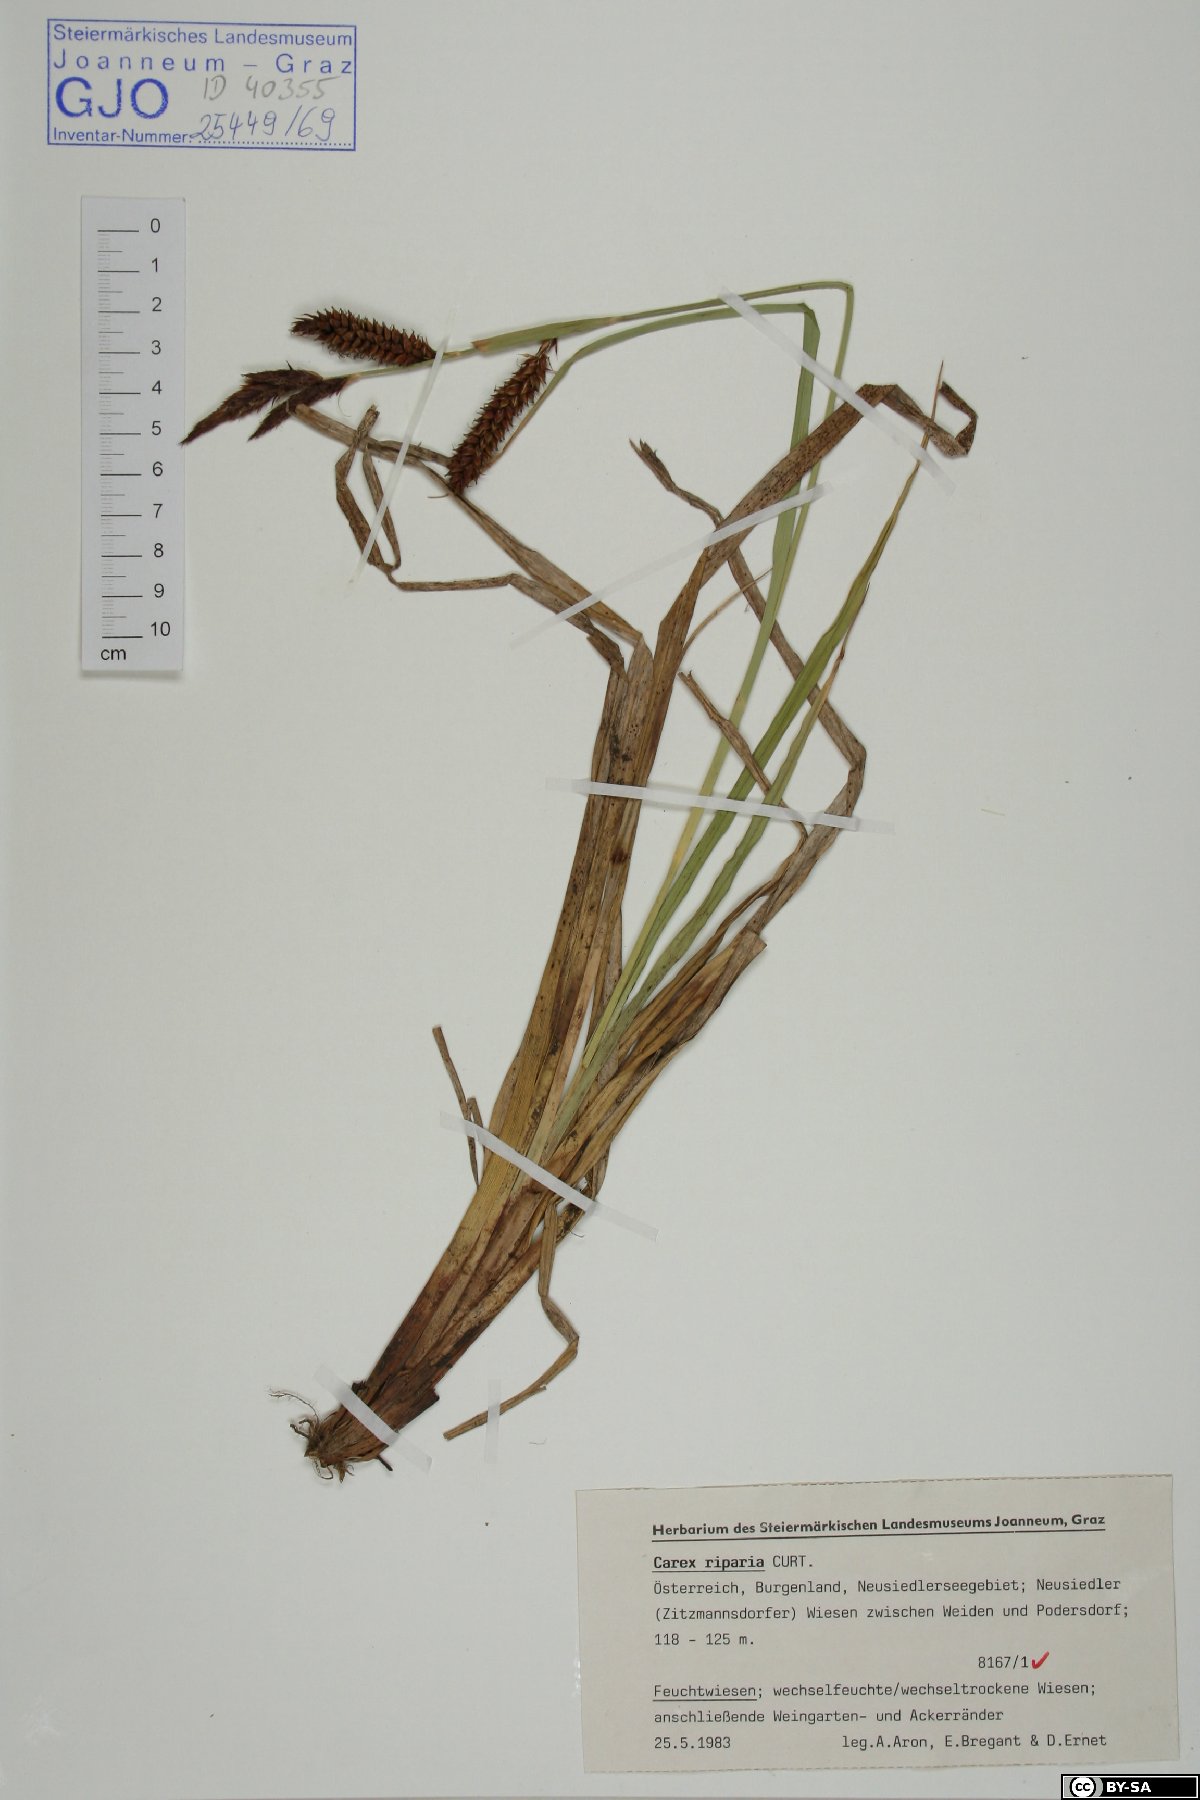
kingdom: Plantae
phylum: Tracheophyta
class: Liliopsida
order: Poales
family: Cyperaceae
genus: Carex
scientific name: Carex riparia
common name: Greater pond-sedge
